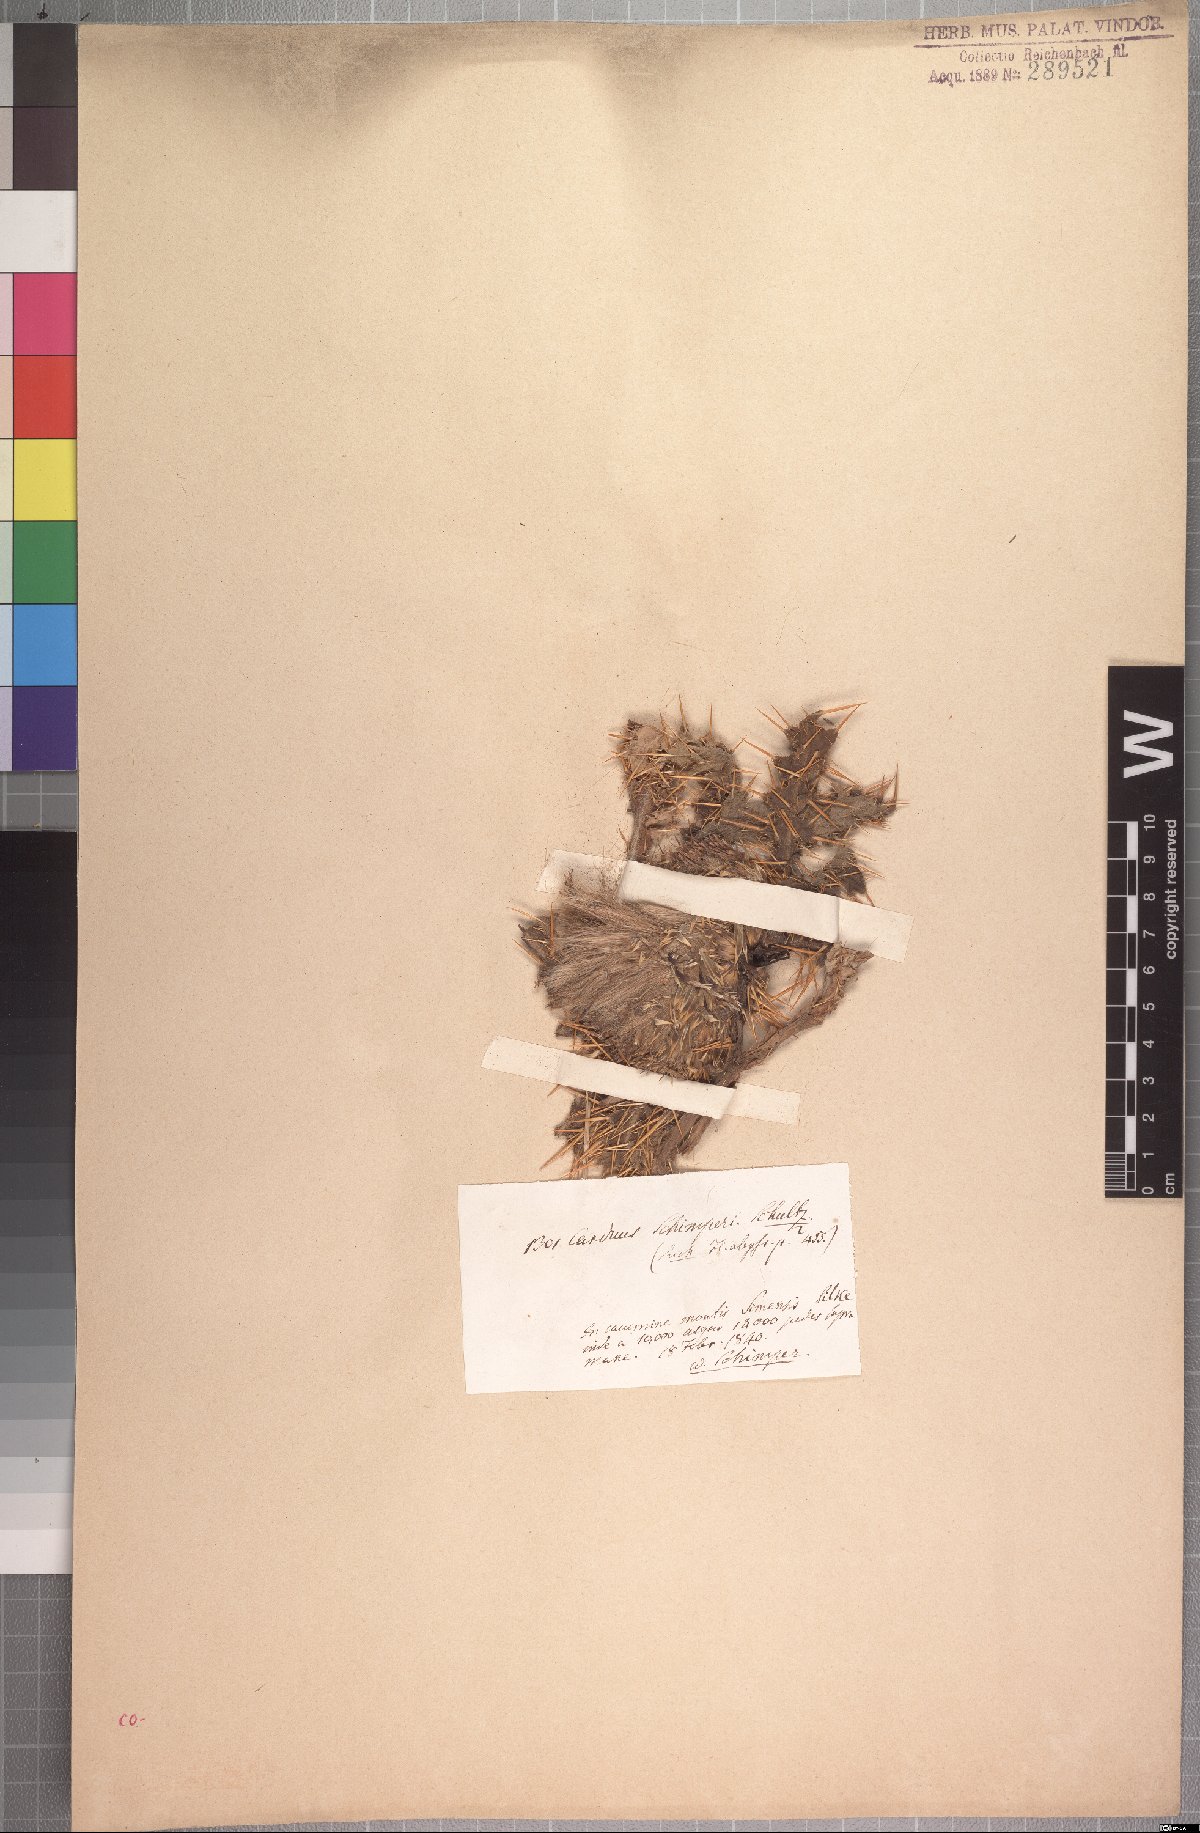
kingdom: Plantae
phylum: Tracheophyta
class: Magnoliopsida
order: Asterales
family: Asteraceae
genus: Carduus
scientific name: Carduus schimperi
